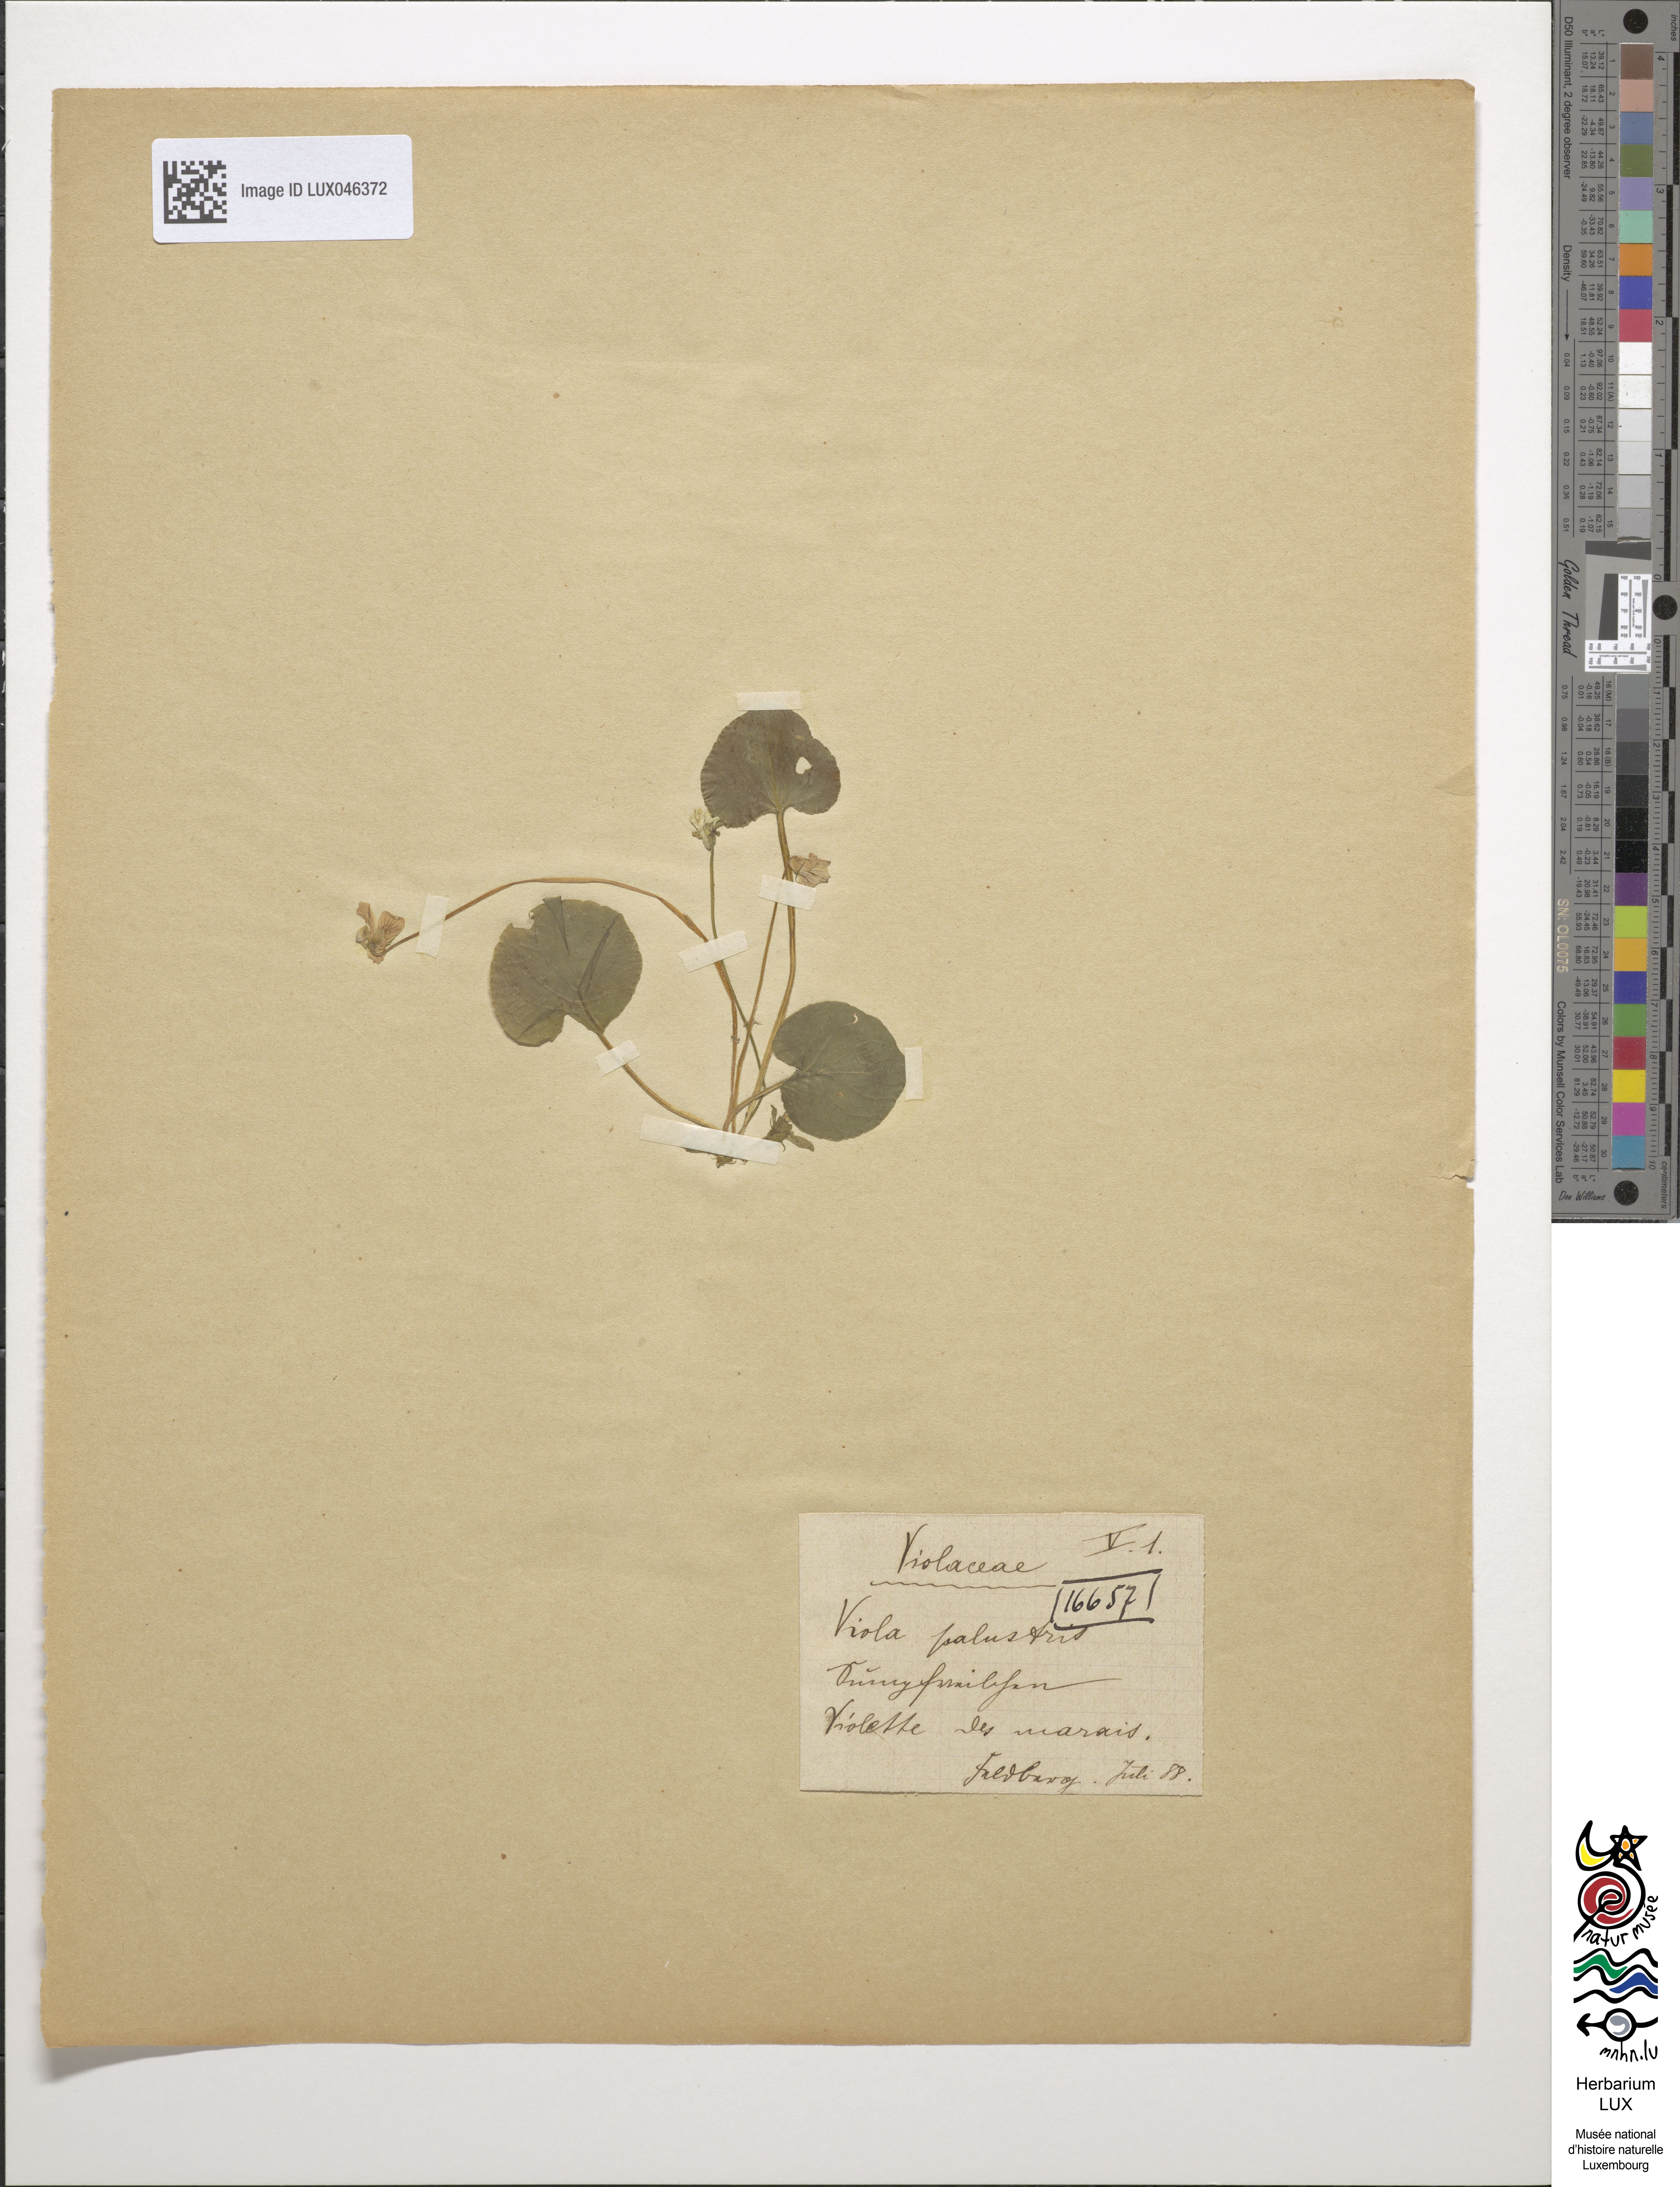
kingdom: Plantae
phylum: Tracheophyta
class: Magnoliopsida
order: Malpighiales
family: Violaceae
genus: Viola
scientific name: Viola palustris
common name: Marsh violet
